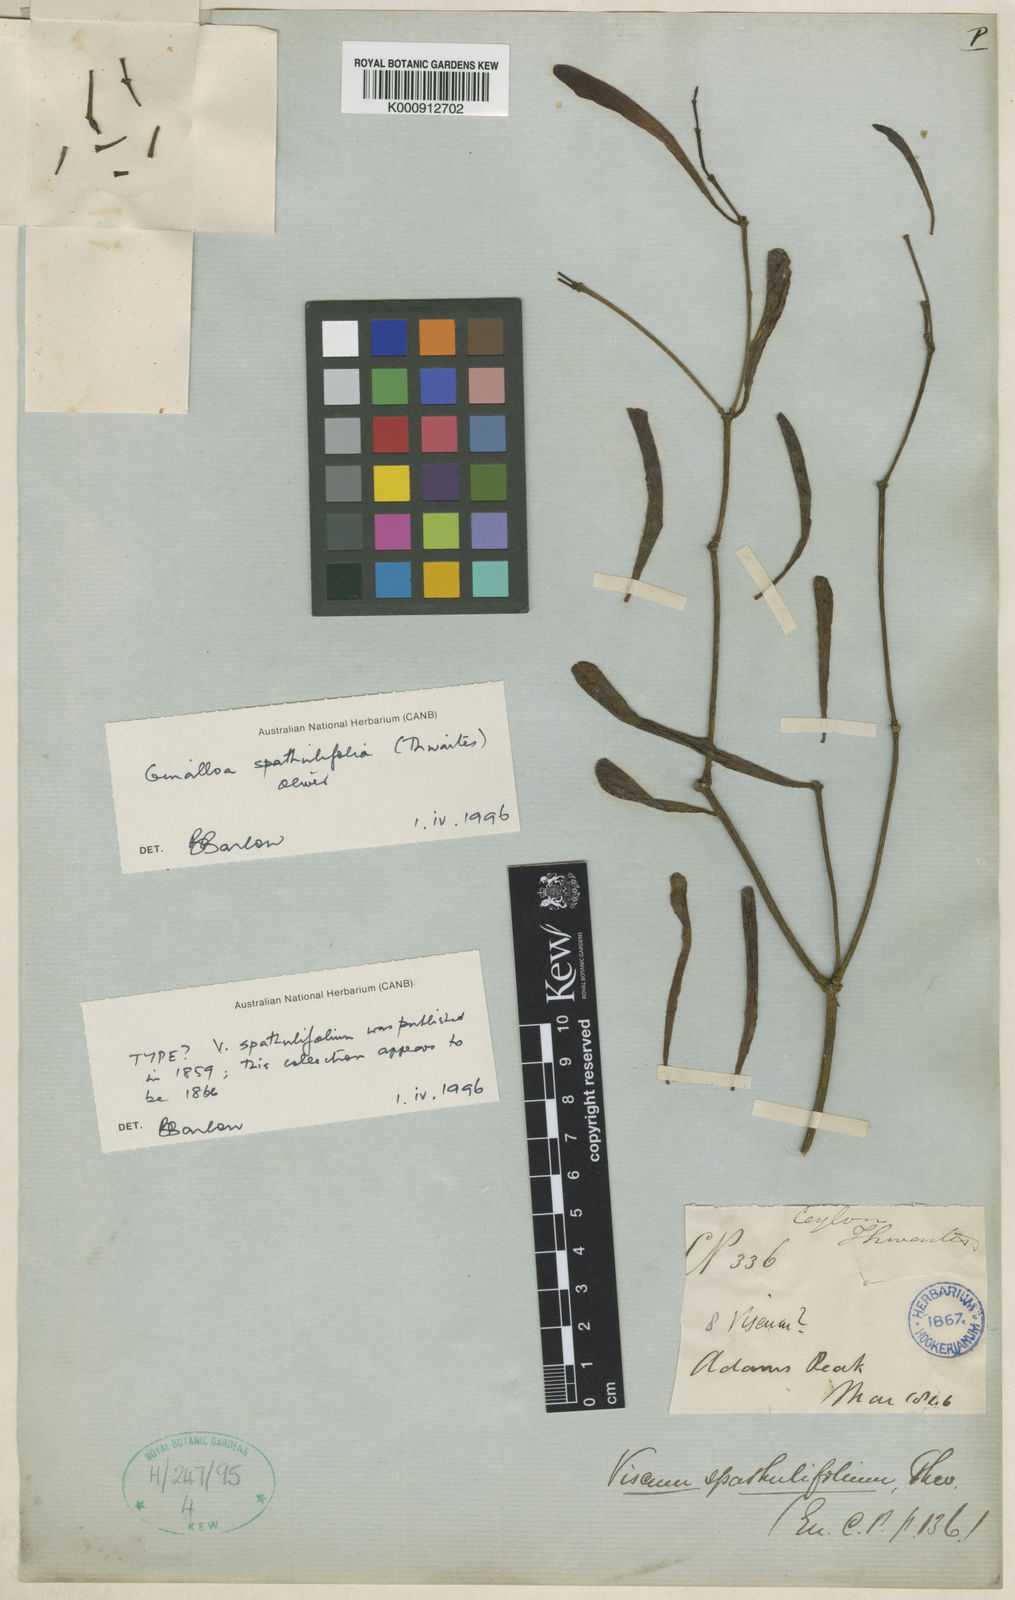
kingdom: Plantae
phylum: Tracheophyta
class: Magnoliopsida
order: Santalales
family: Viscaceae
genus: Ginalloa
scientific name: Ginalloa spathulifolia
